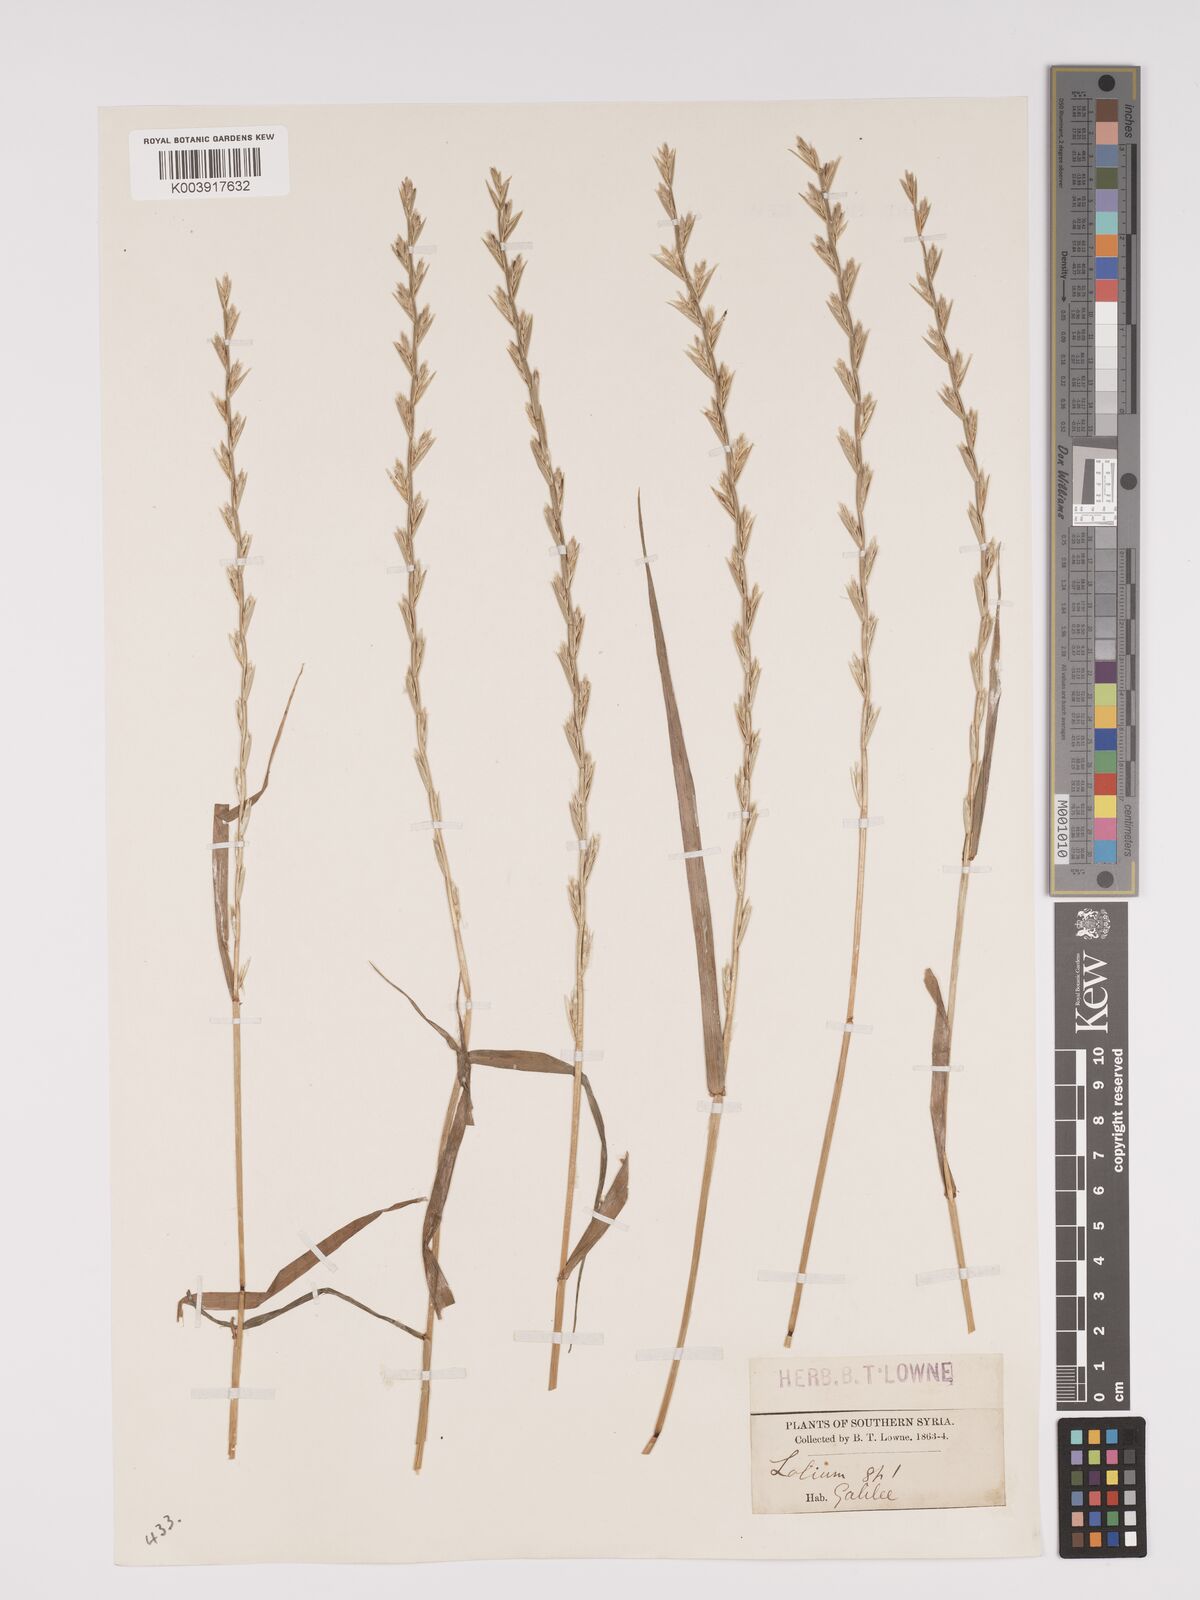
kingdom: Plantae
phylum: Tracheophyta
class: Liliopsida
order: Poales
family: Poaceae
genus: Lolium
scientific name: Lolium
